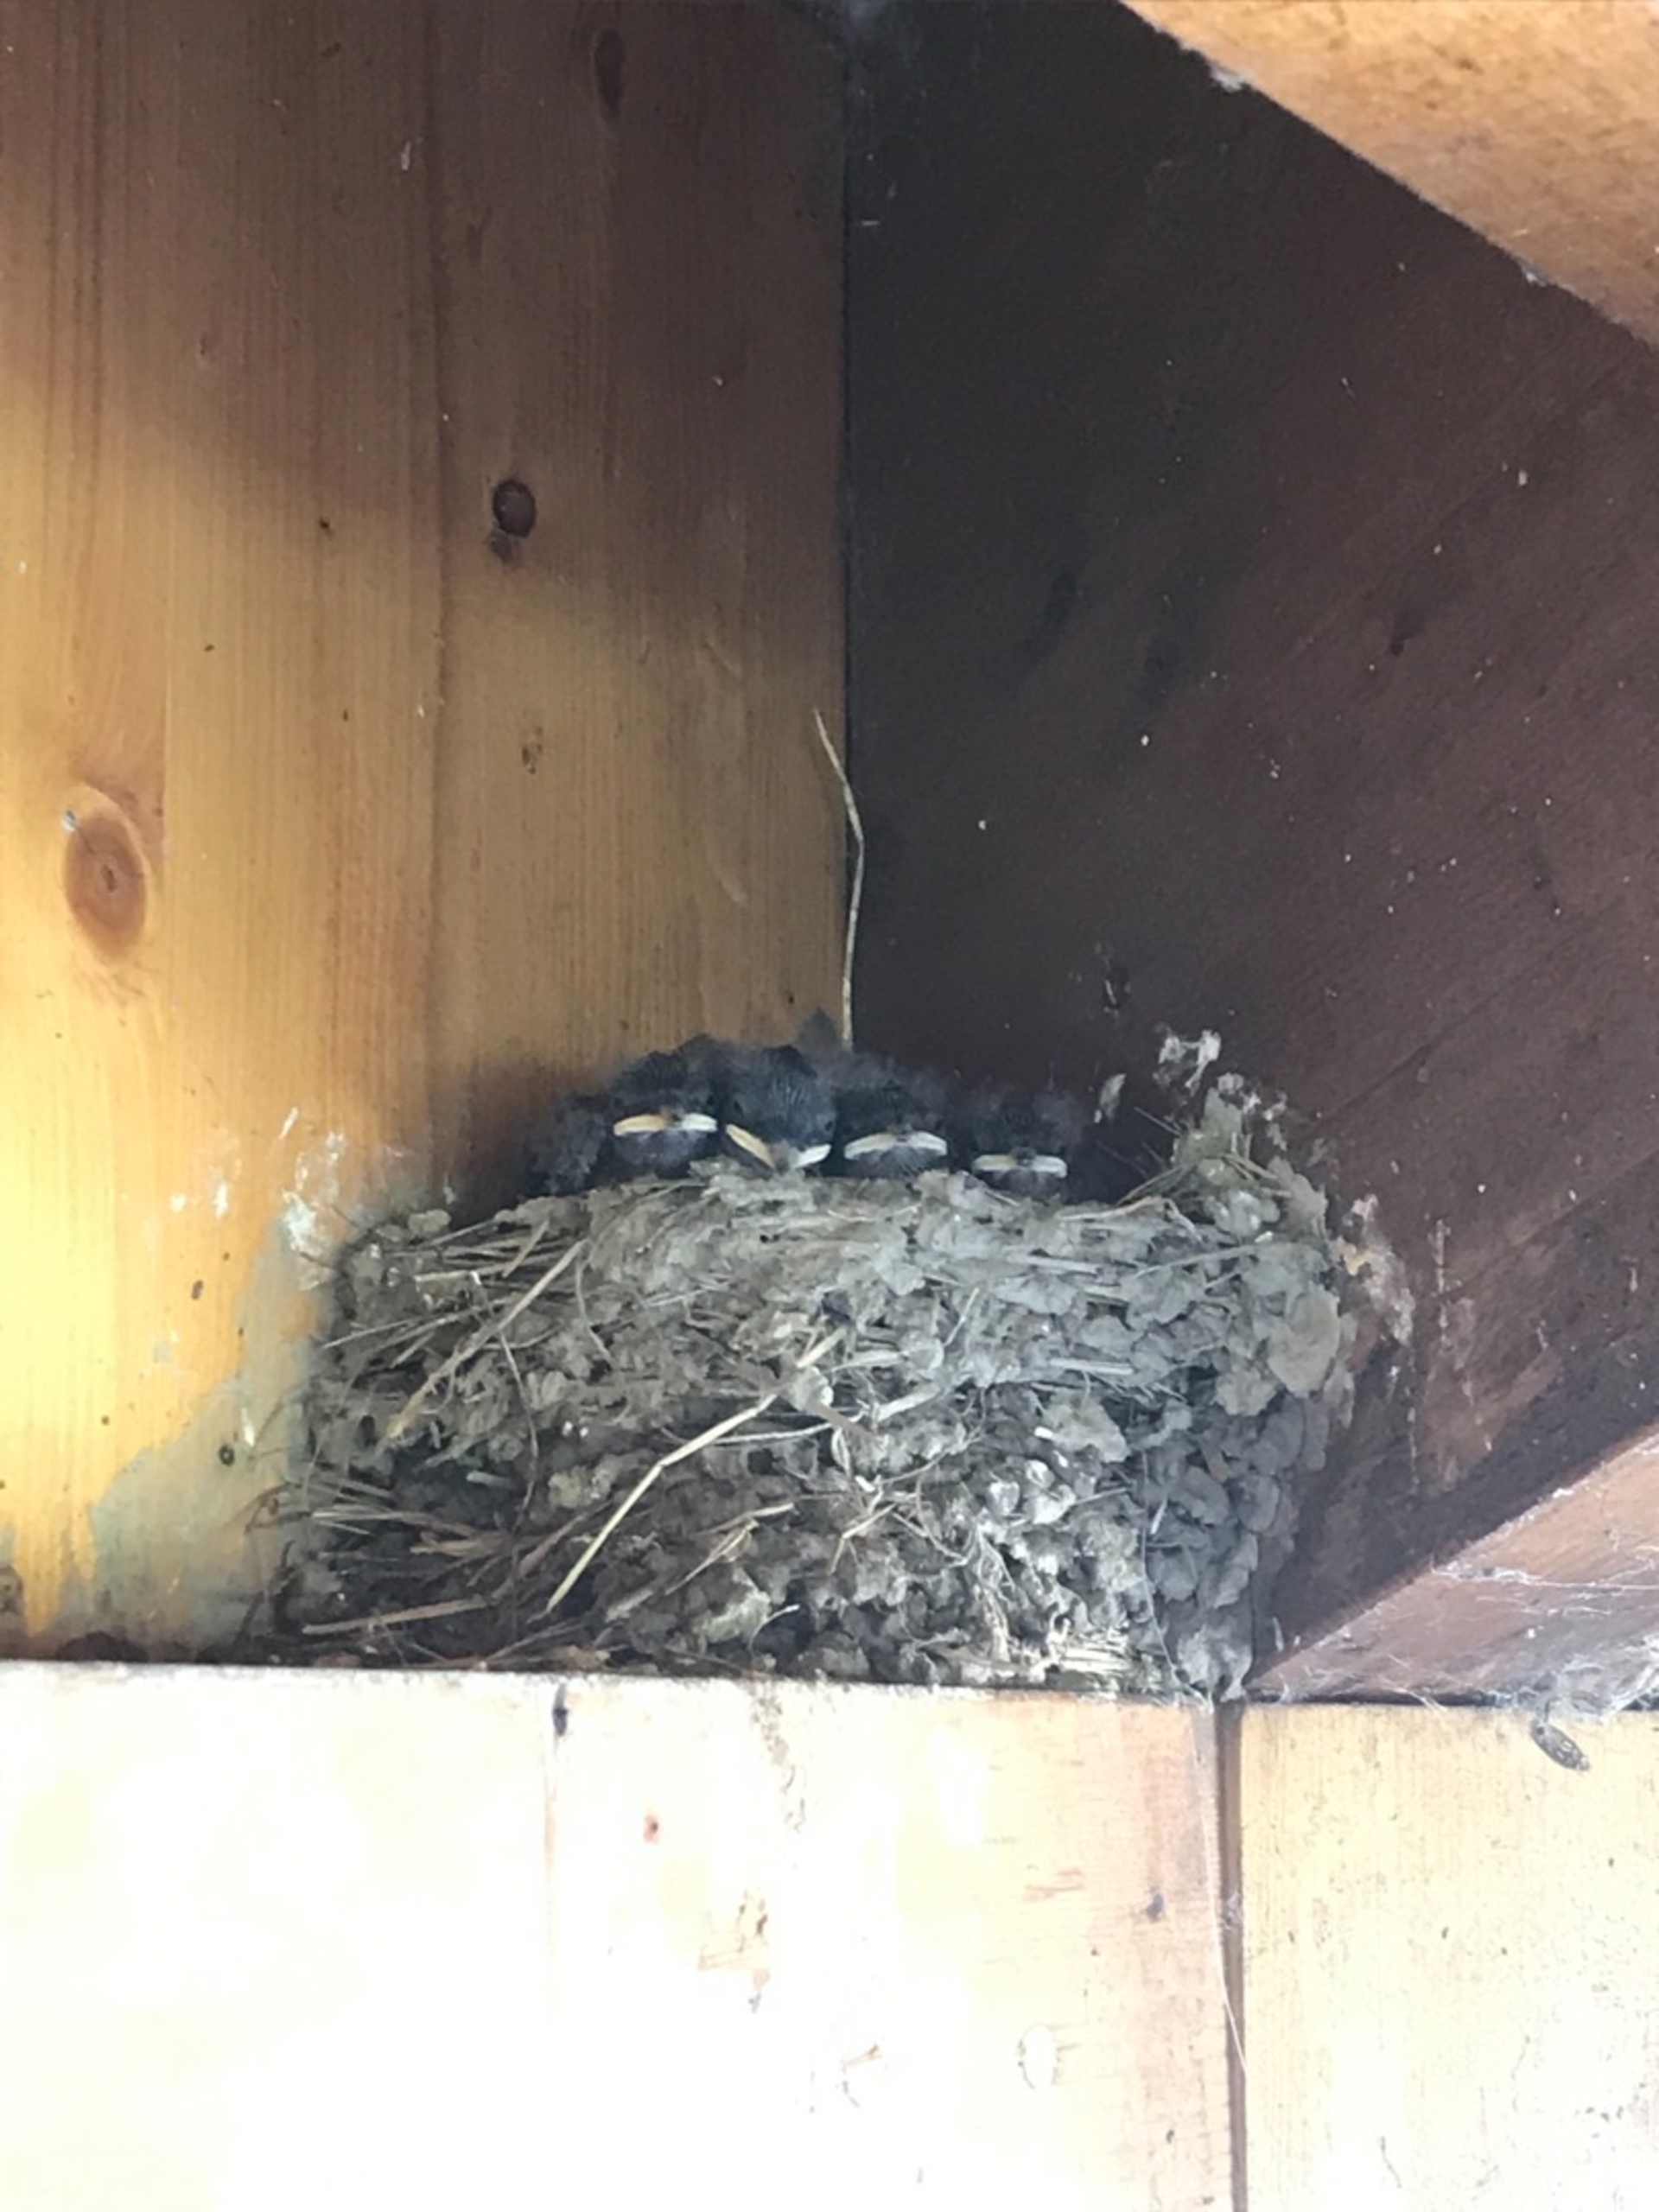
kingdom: Animalia
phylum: Chordata
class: Aves
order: Passeriformes
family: Hirundinidae
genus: Hirundo
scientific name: Hirundo rustica
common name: Landsvale
